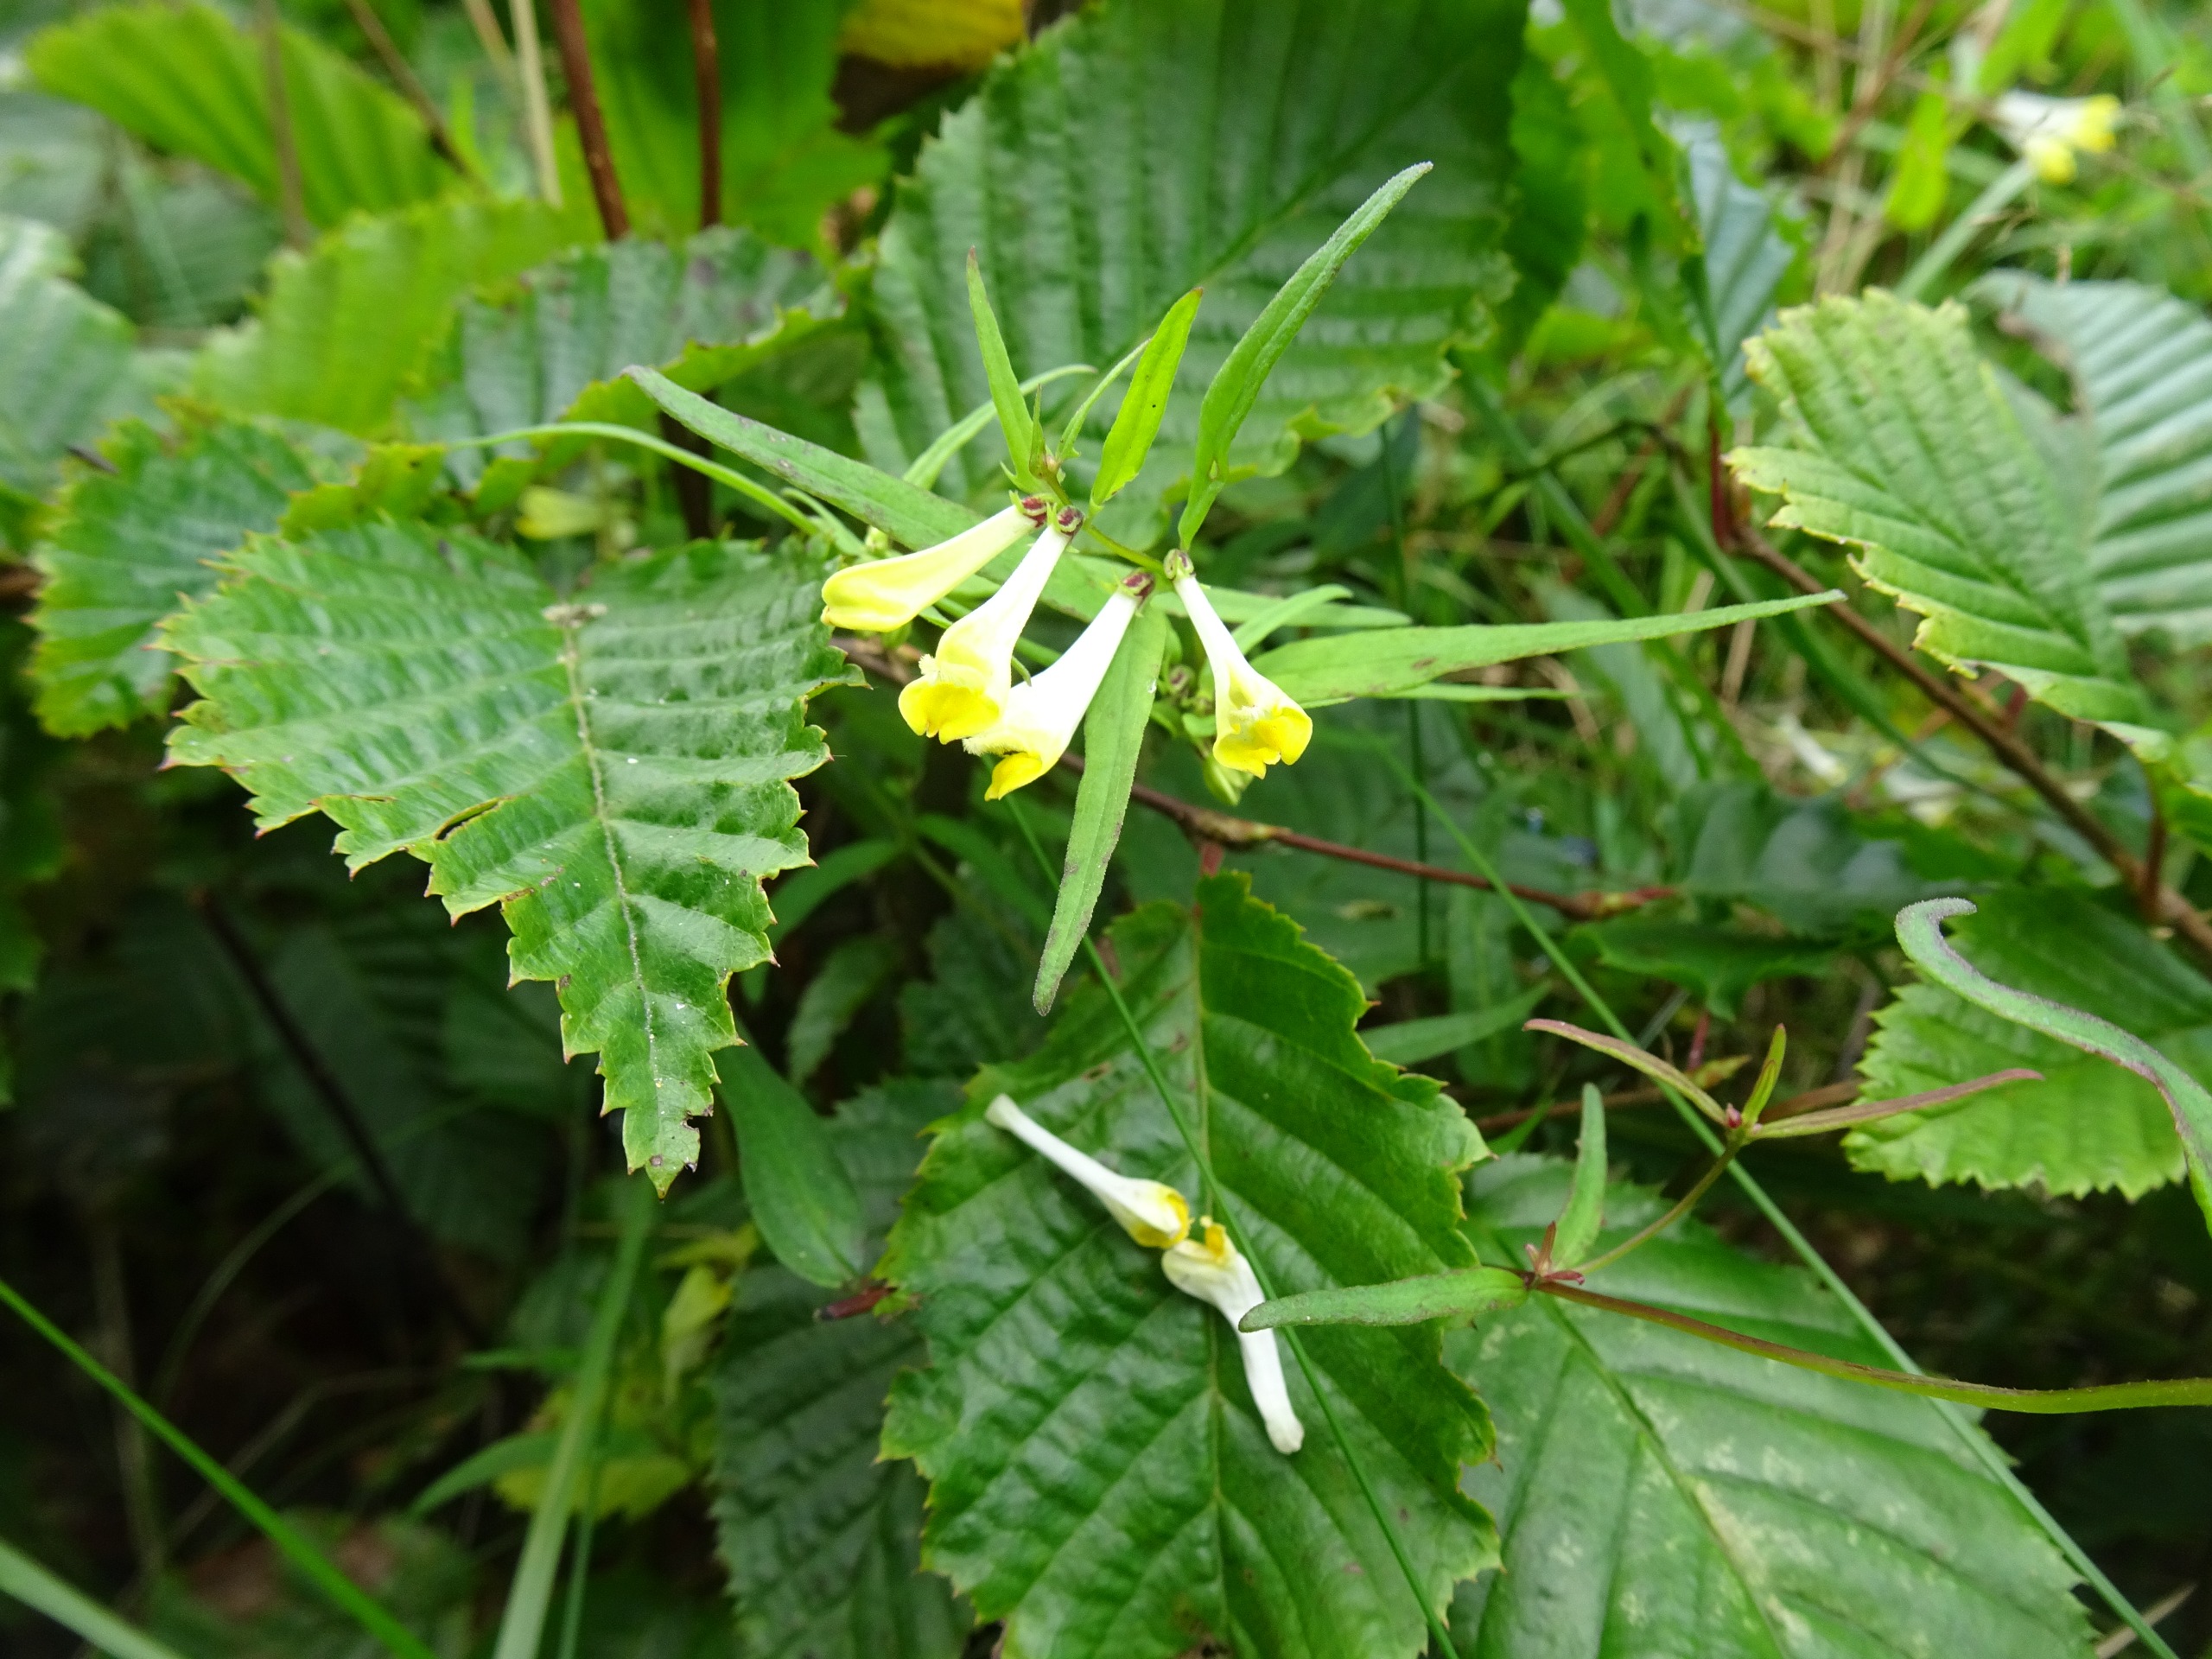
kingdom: Plantae
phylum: Tracheophyta
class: Magnoliopsida
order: Lamiales
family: Orobanchaceae
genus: Melampyrum
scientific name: Melampyrum pratense
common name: Almindelig kohvede
